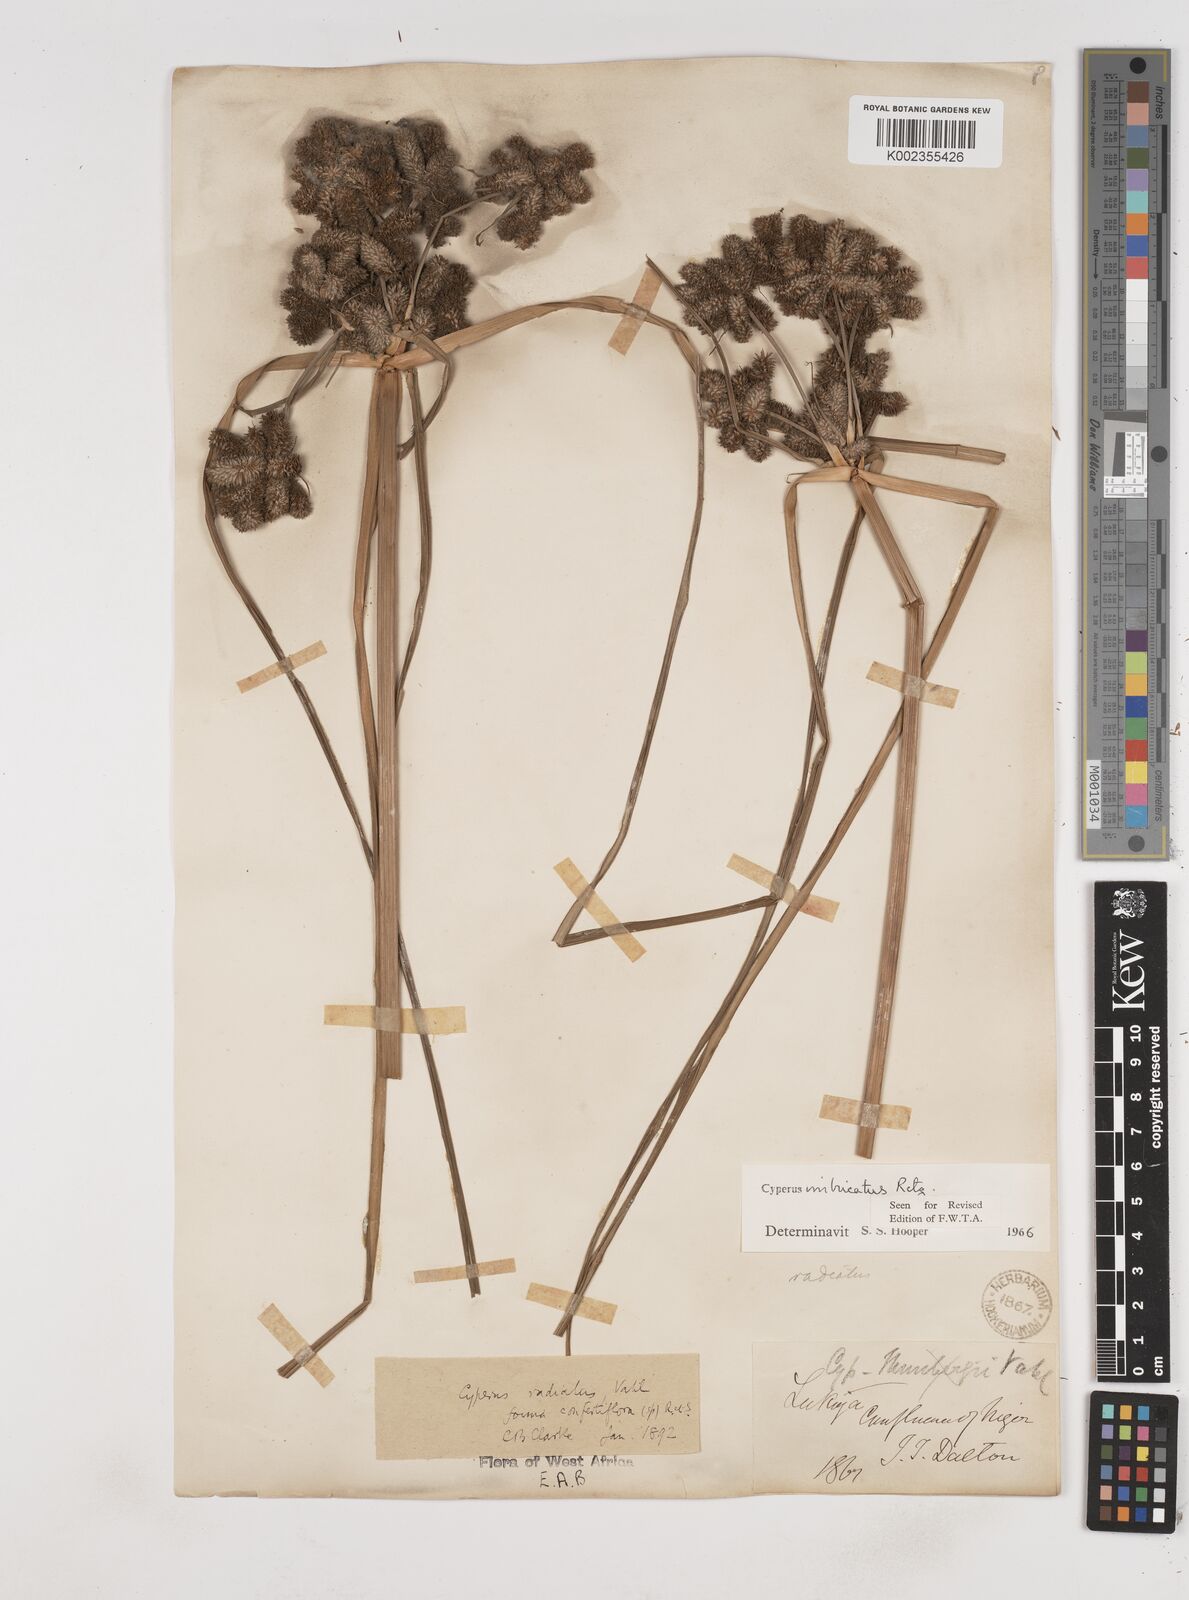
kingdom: Plantae
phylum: Tracheophyta
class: Liliopsida
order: Poales
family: Cyperaceae
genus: Cyperus
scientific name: Cyperus imbricatus
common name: Shingle flatsedge
